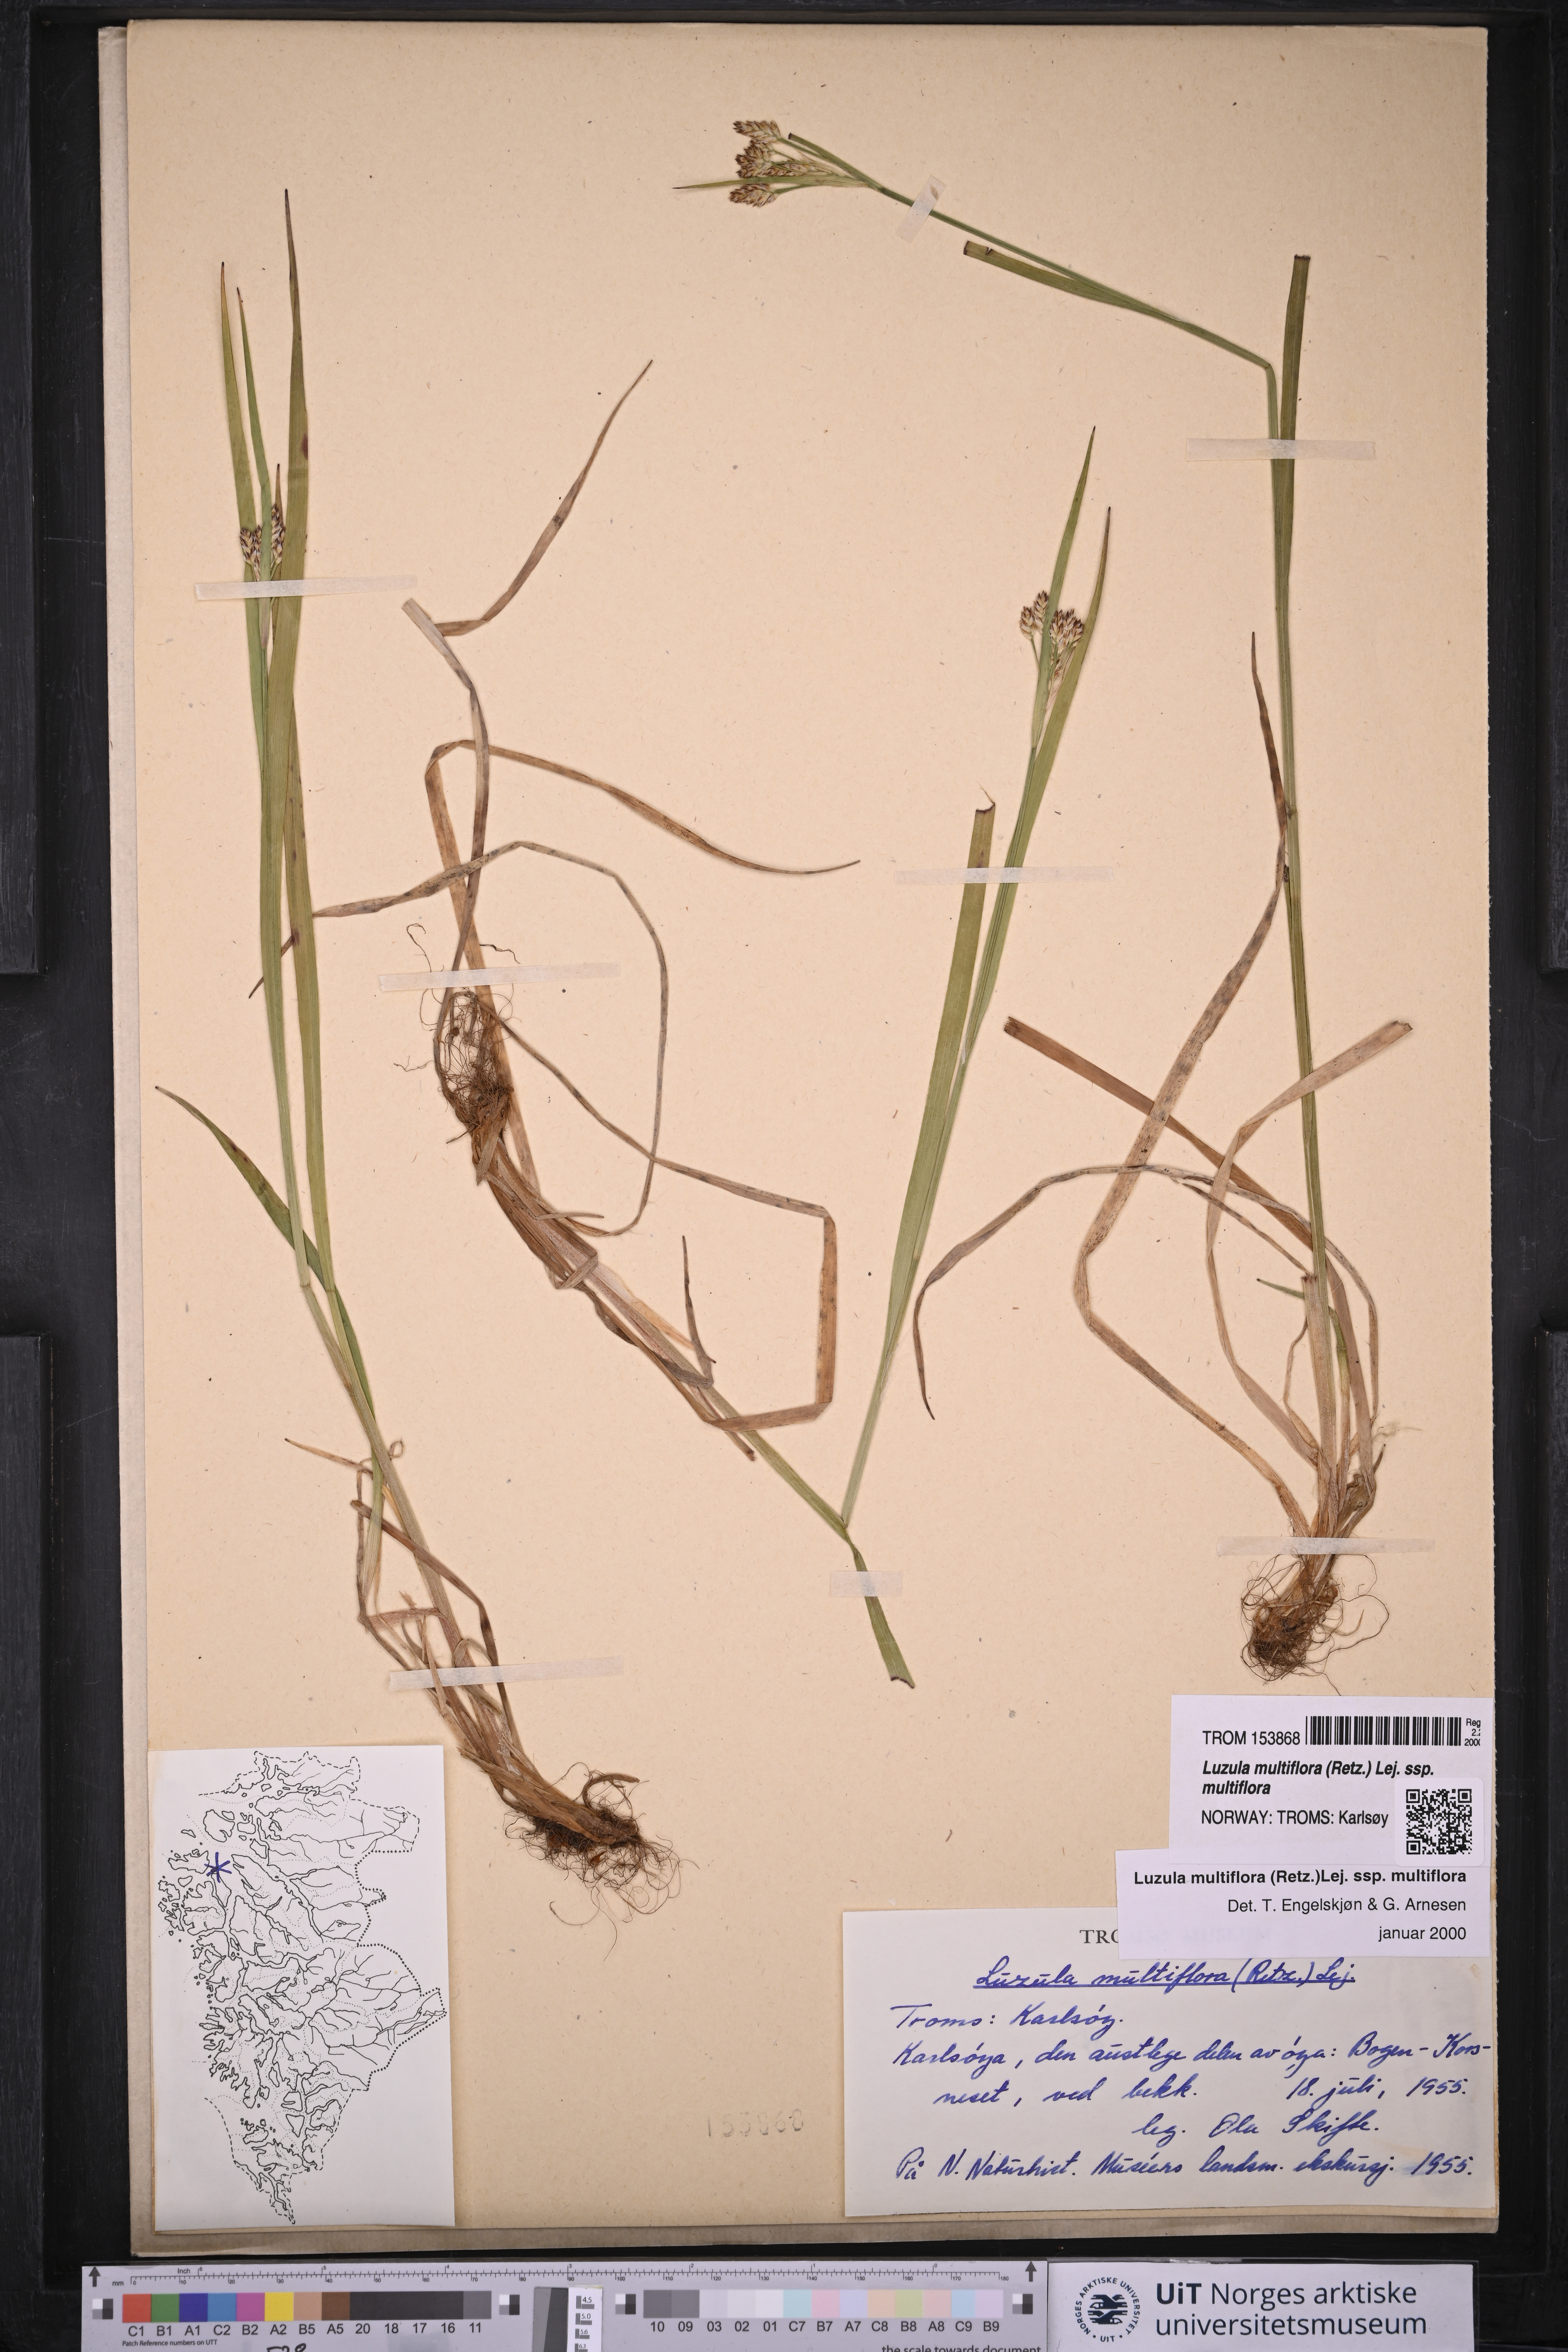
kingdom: Plantae
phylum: Tracheophyta
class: Liliopsida
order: Poales
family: Juncaceae
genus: Luzula
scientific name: Luzula multiflora
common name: Heath wood-rush
